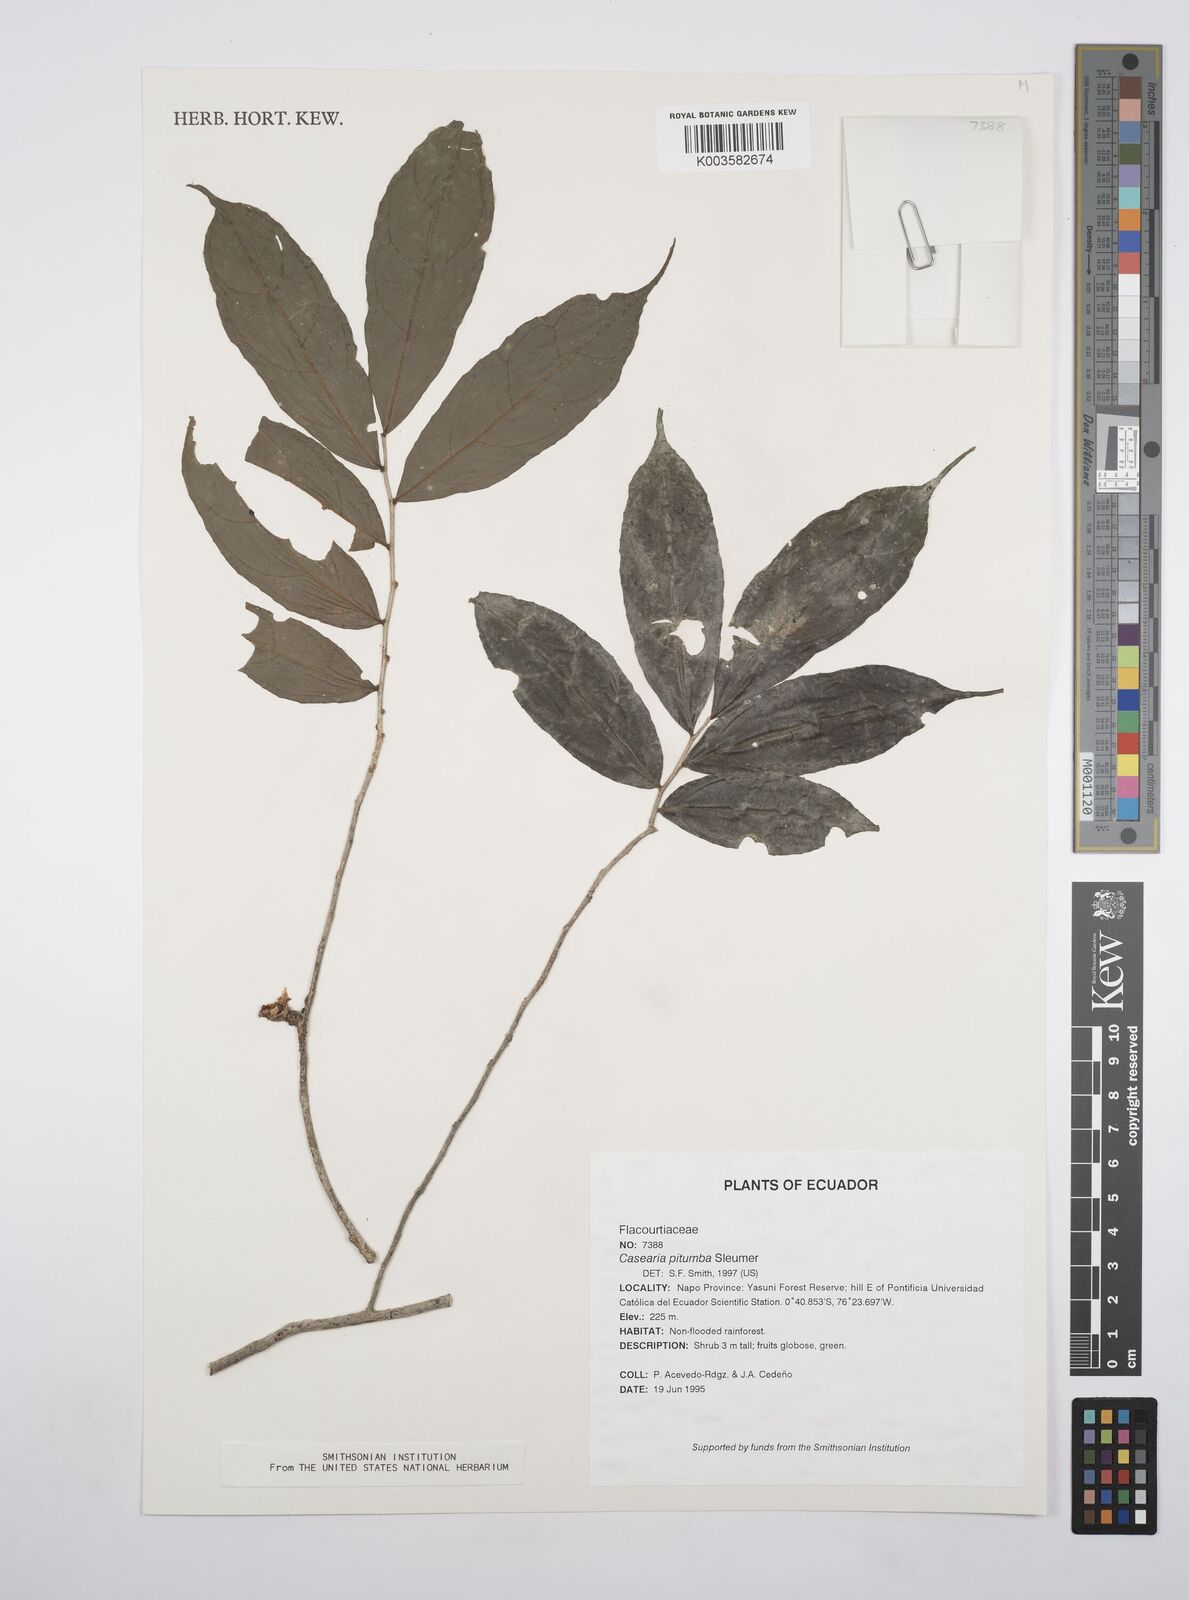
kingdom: Plantae
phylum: Tracheophyta
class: Magnoliopsida
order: Malpighiales
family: Salicaceae
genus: Casearia
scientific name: Casearia pitumba
